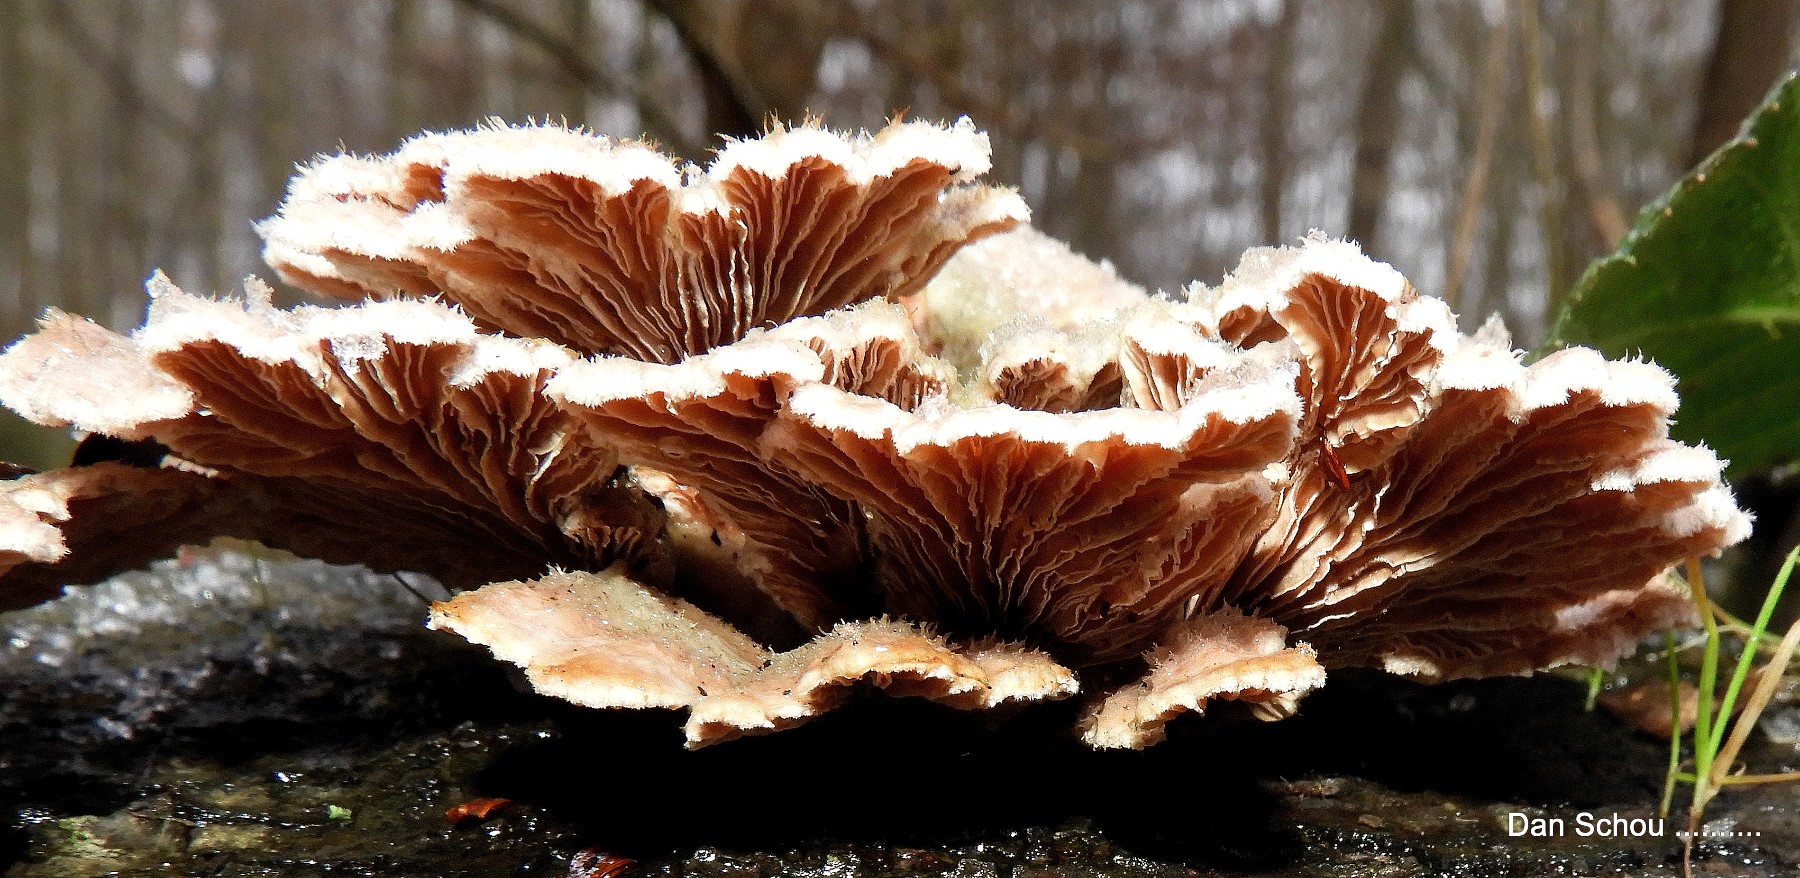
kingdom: Fungi
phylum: Basidiomycota
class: Agaricomycetes
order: Agaricales
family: Schizophyllaceae
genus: Schizophyllum
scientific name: Schizophyllum commune
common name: kløvblad
